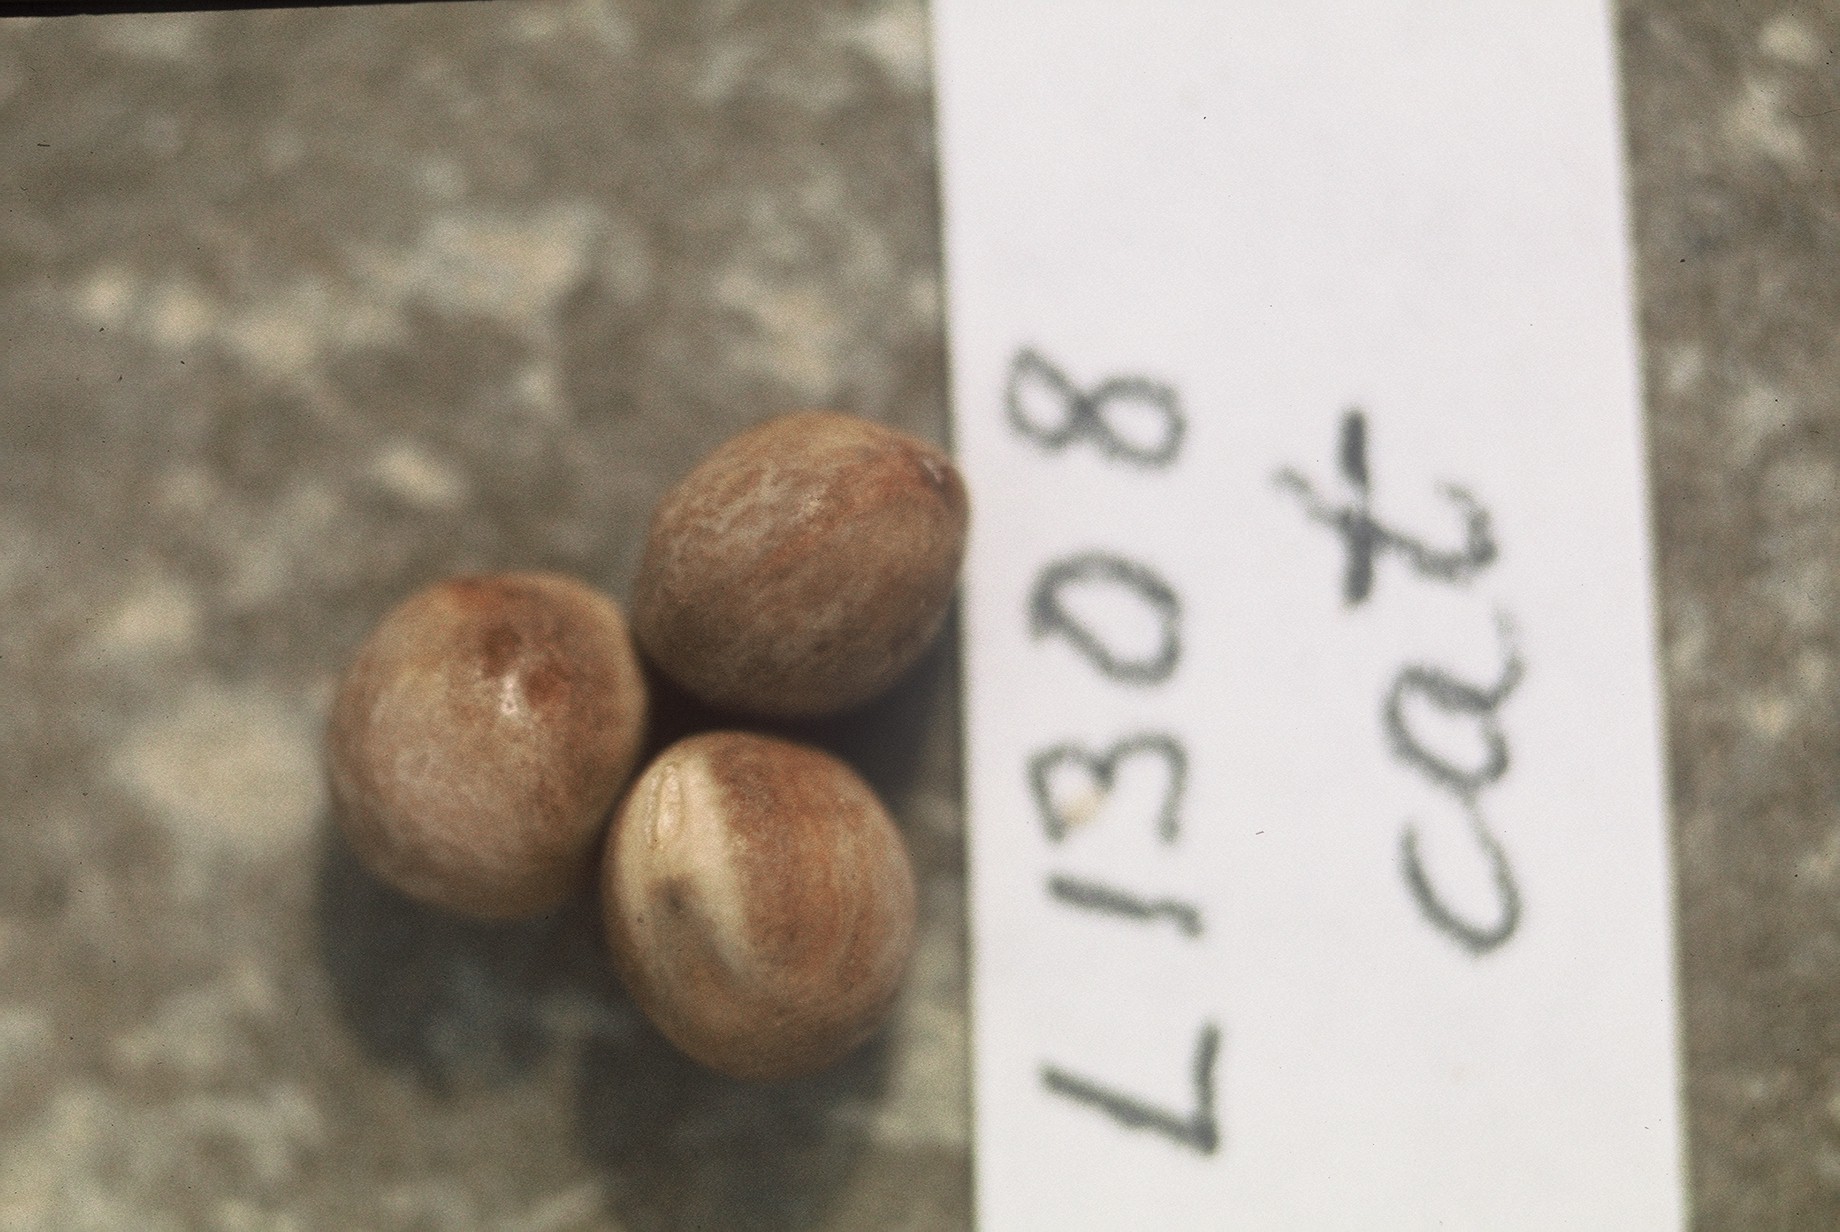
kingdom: Plantae
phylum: Tracheophyta
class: Magnoliopsida
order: Fabales
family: Fabaceae
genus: Lathyrus
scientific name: Lathyrus oleraceus
